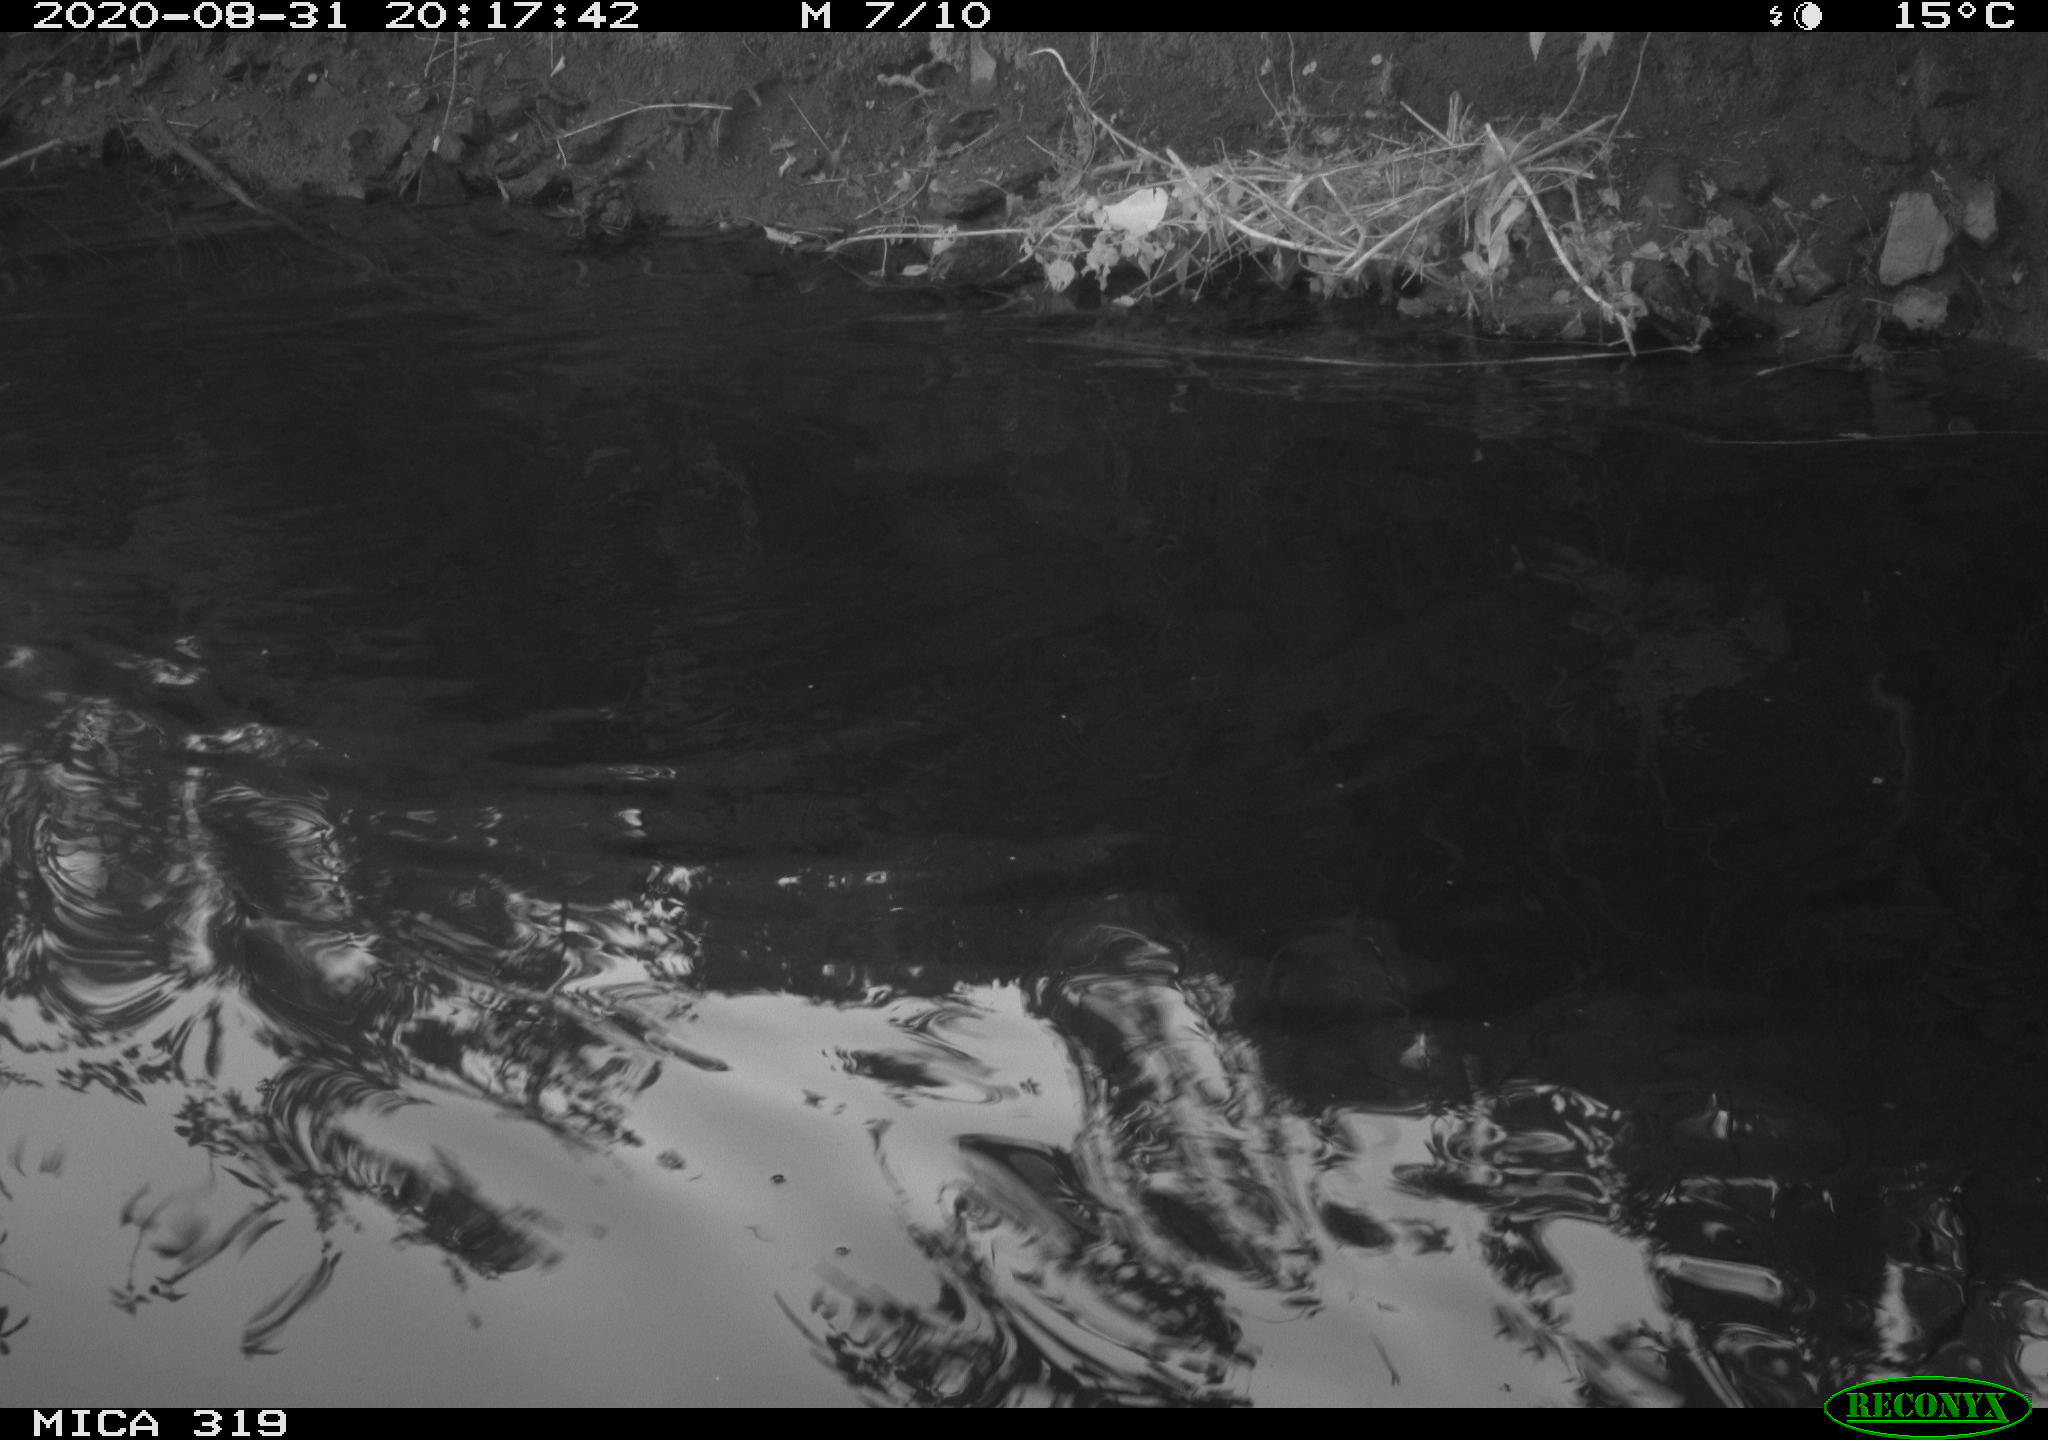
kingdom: Animalia
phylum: Chordata
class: Aves
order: Anseriformes
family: Anatidae
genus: Anas
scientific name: Anas platyrhynchos
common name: Mallard
